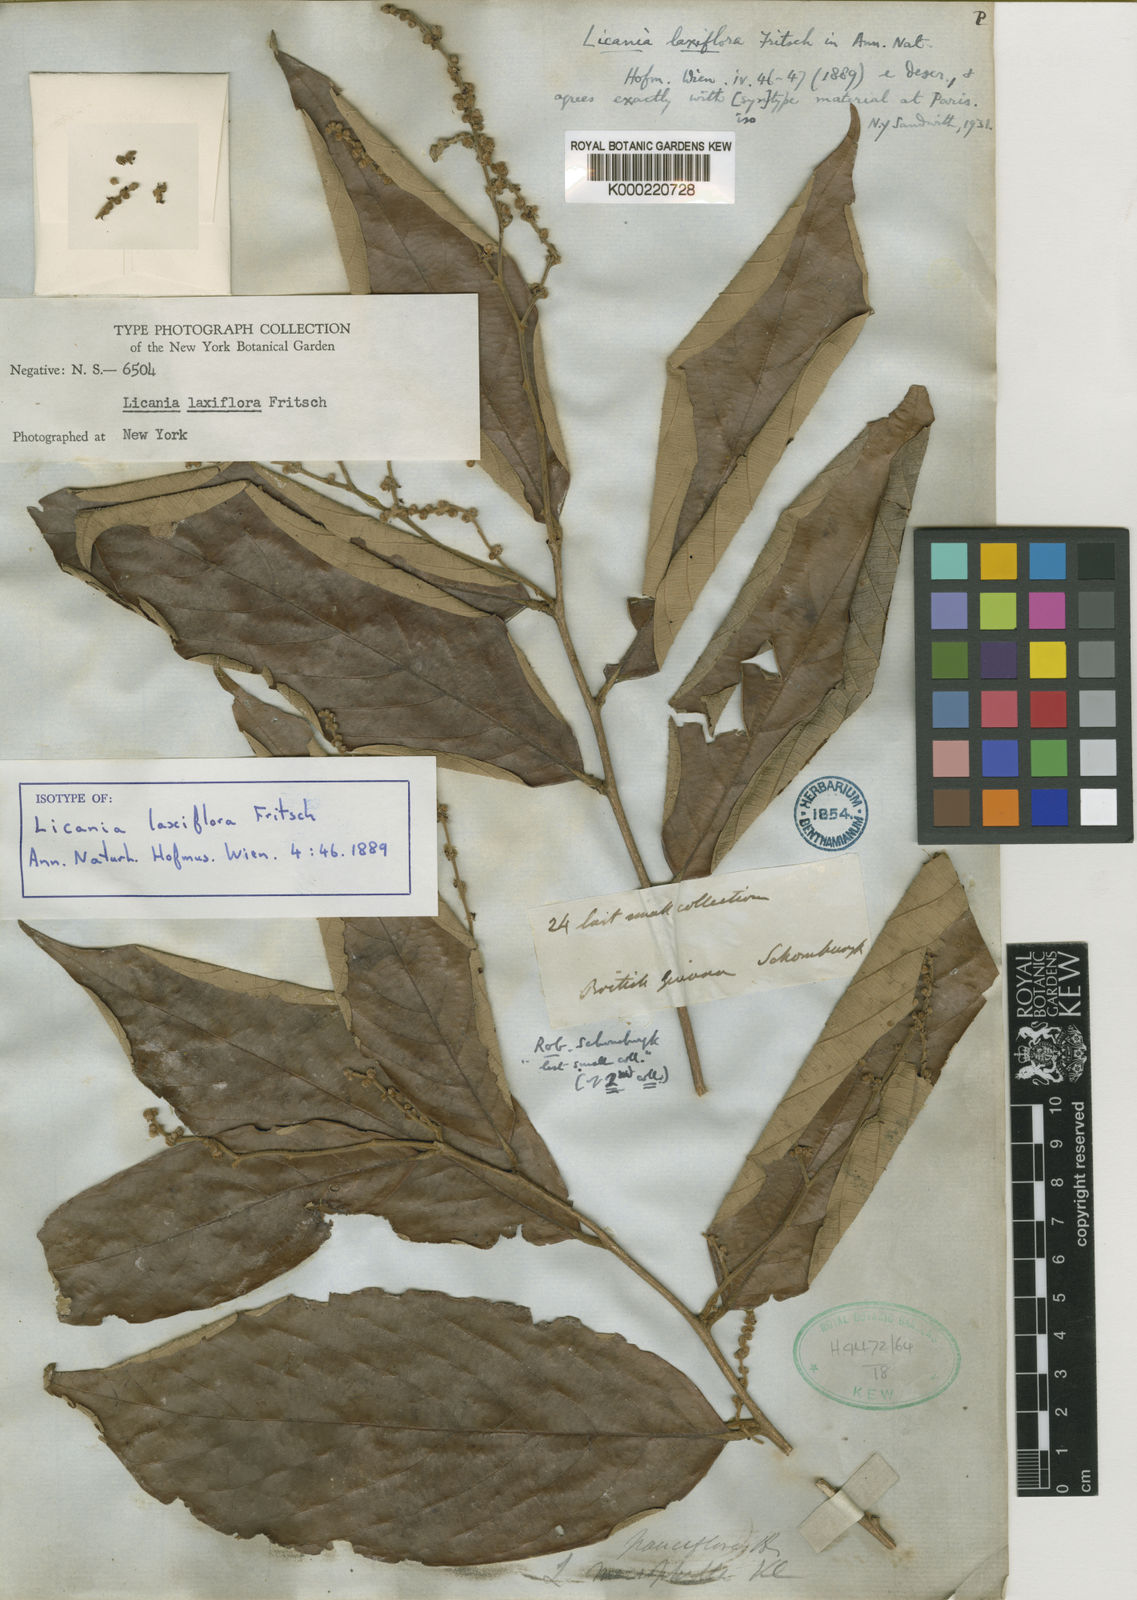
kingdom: Plantae
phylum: Tracheophyta
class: Magnoliopsida
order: Malpighiales
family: Chrysobalanaceae
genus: Licania
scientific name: Licania laxiflora
